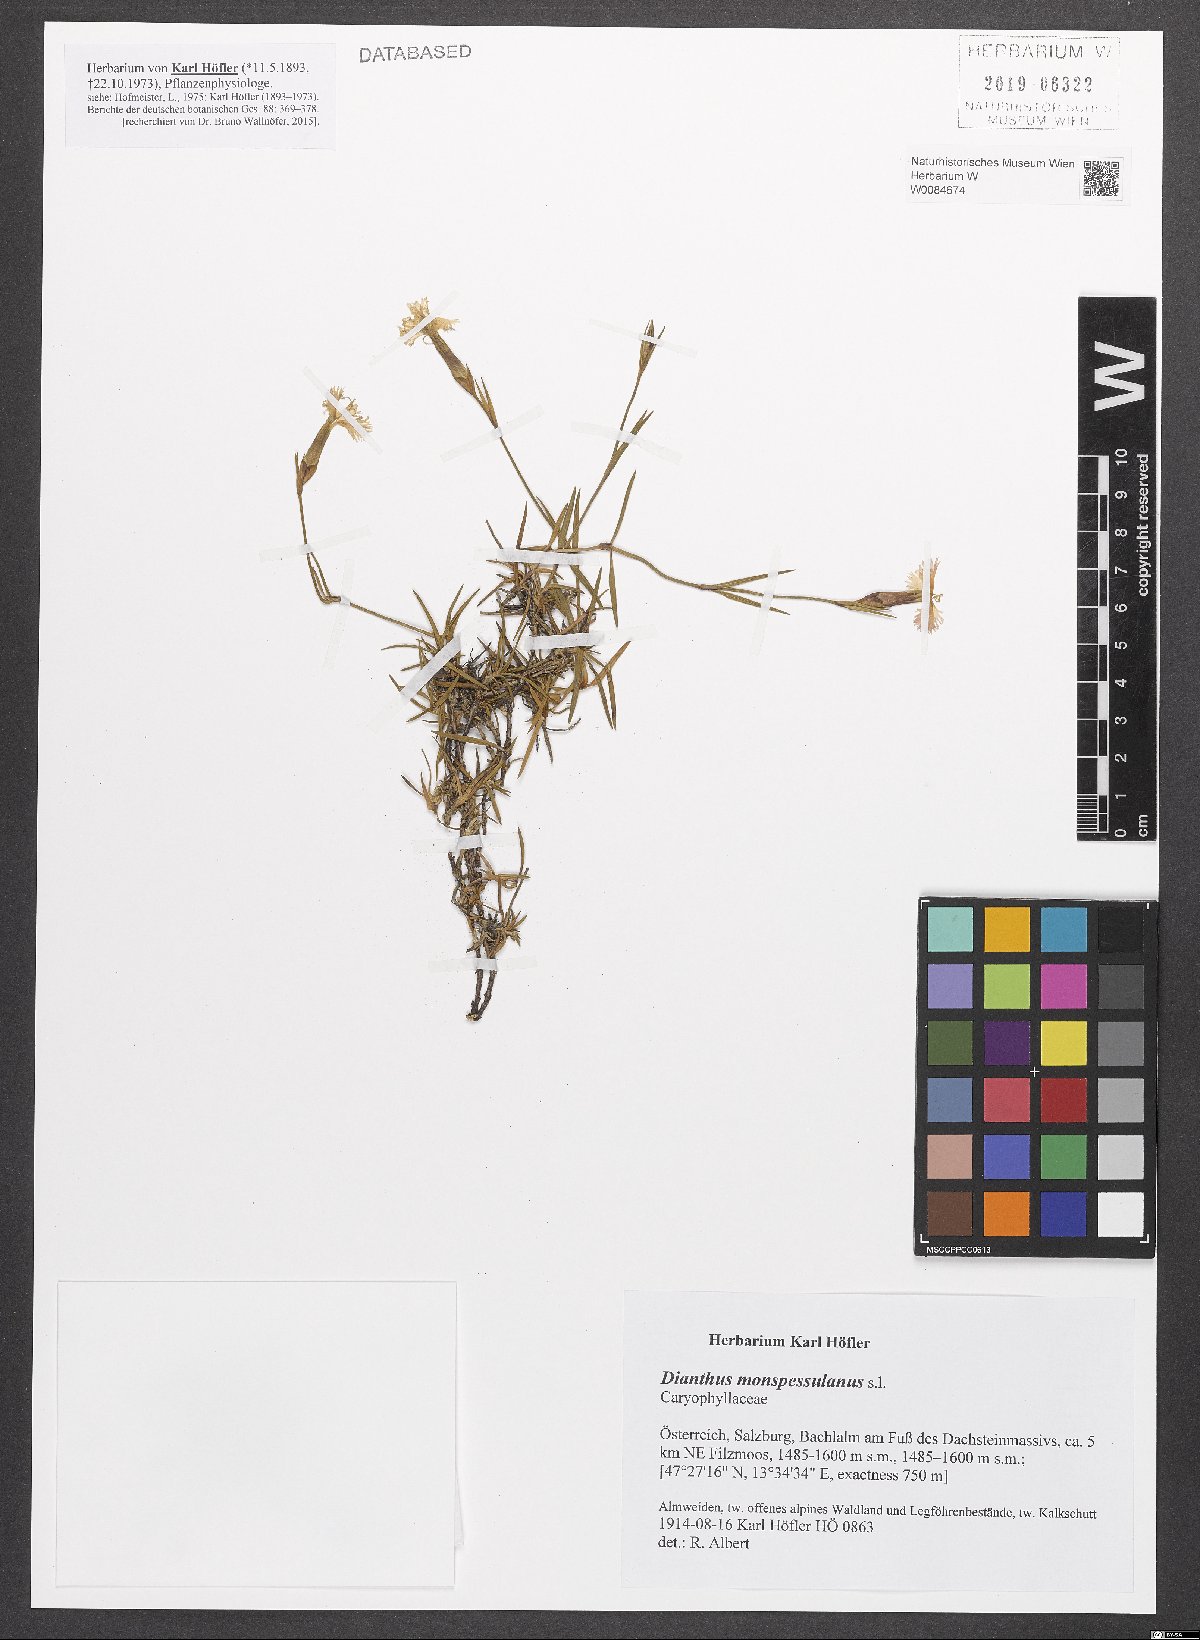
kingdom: Plantae
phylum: Tracheophyta
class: Magnoliopsida
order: Caryophyllales
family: Caryophyllaceae
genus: Dianthus
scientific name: Dianthus hyssopifolius
